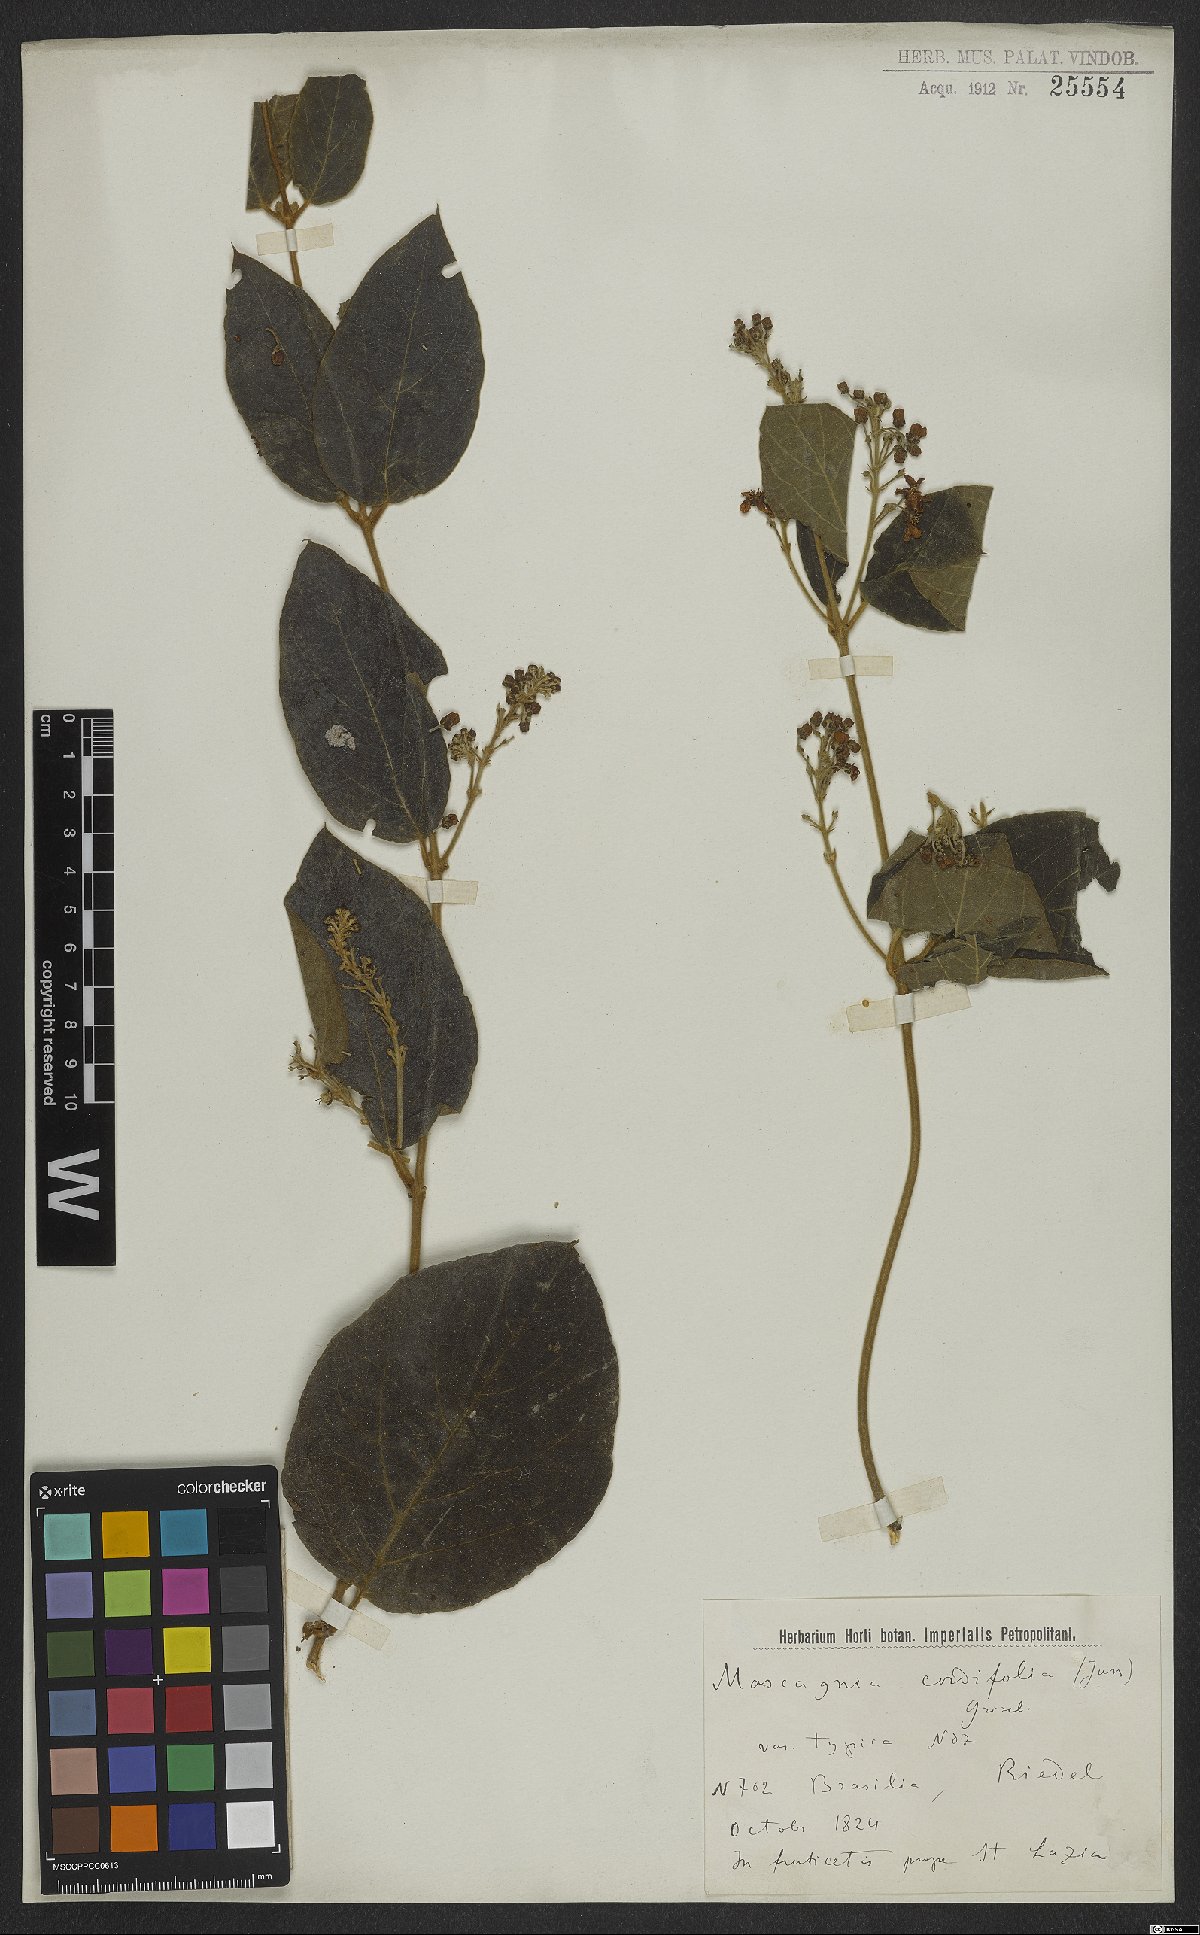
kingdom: Plantae
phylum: Tracheophyta
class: Magnoliopsida
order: Malpighiales
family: Malpighiaceae
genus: Mascagnia
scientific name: Mascagnia cordifolia
